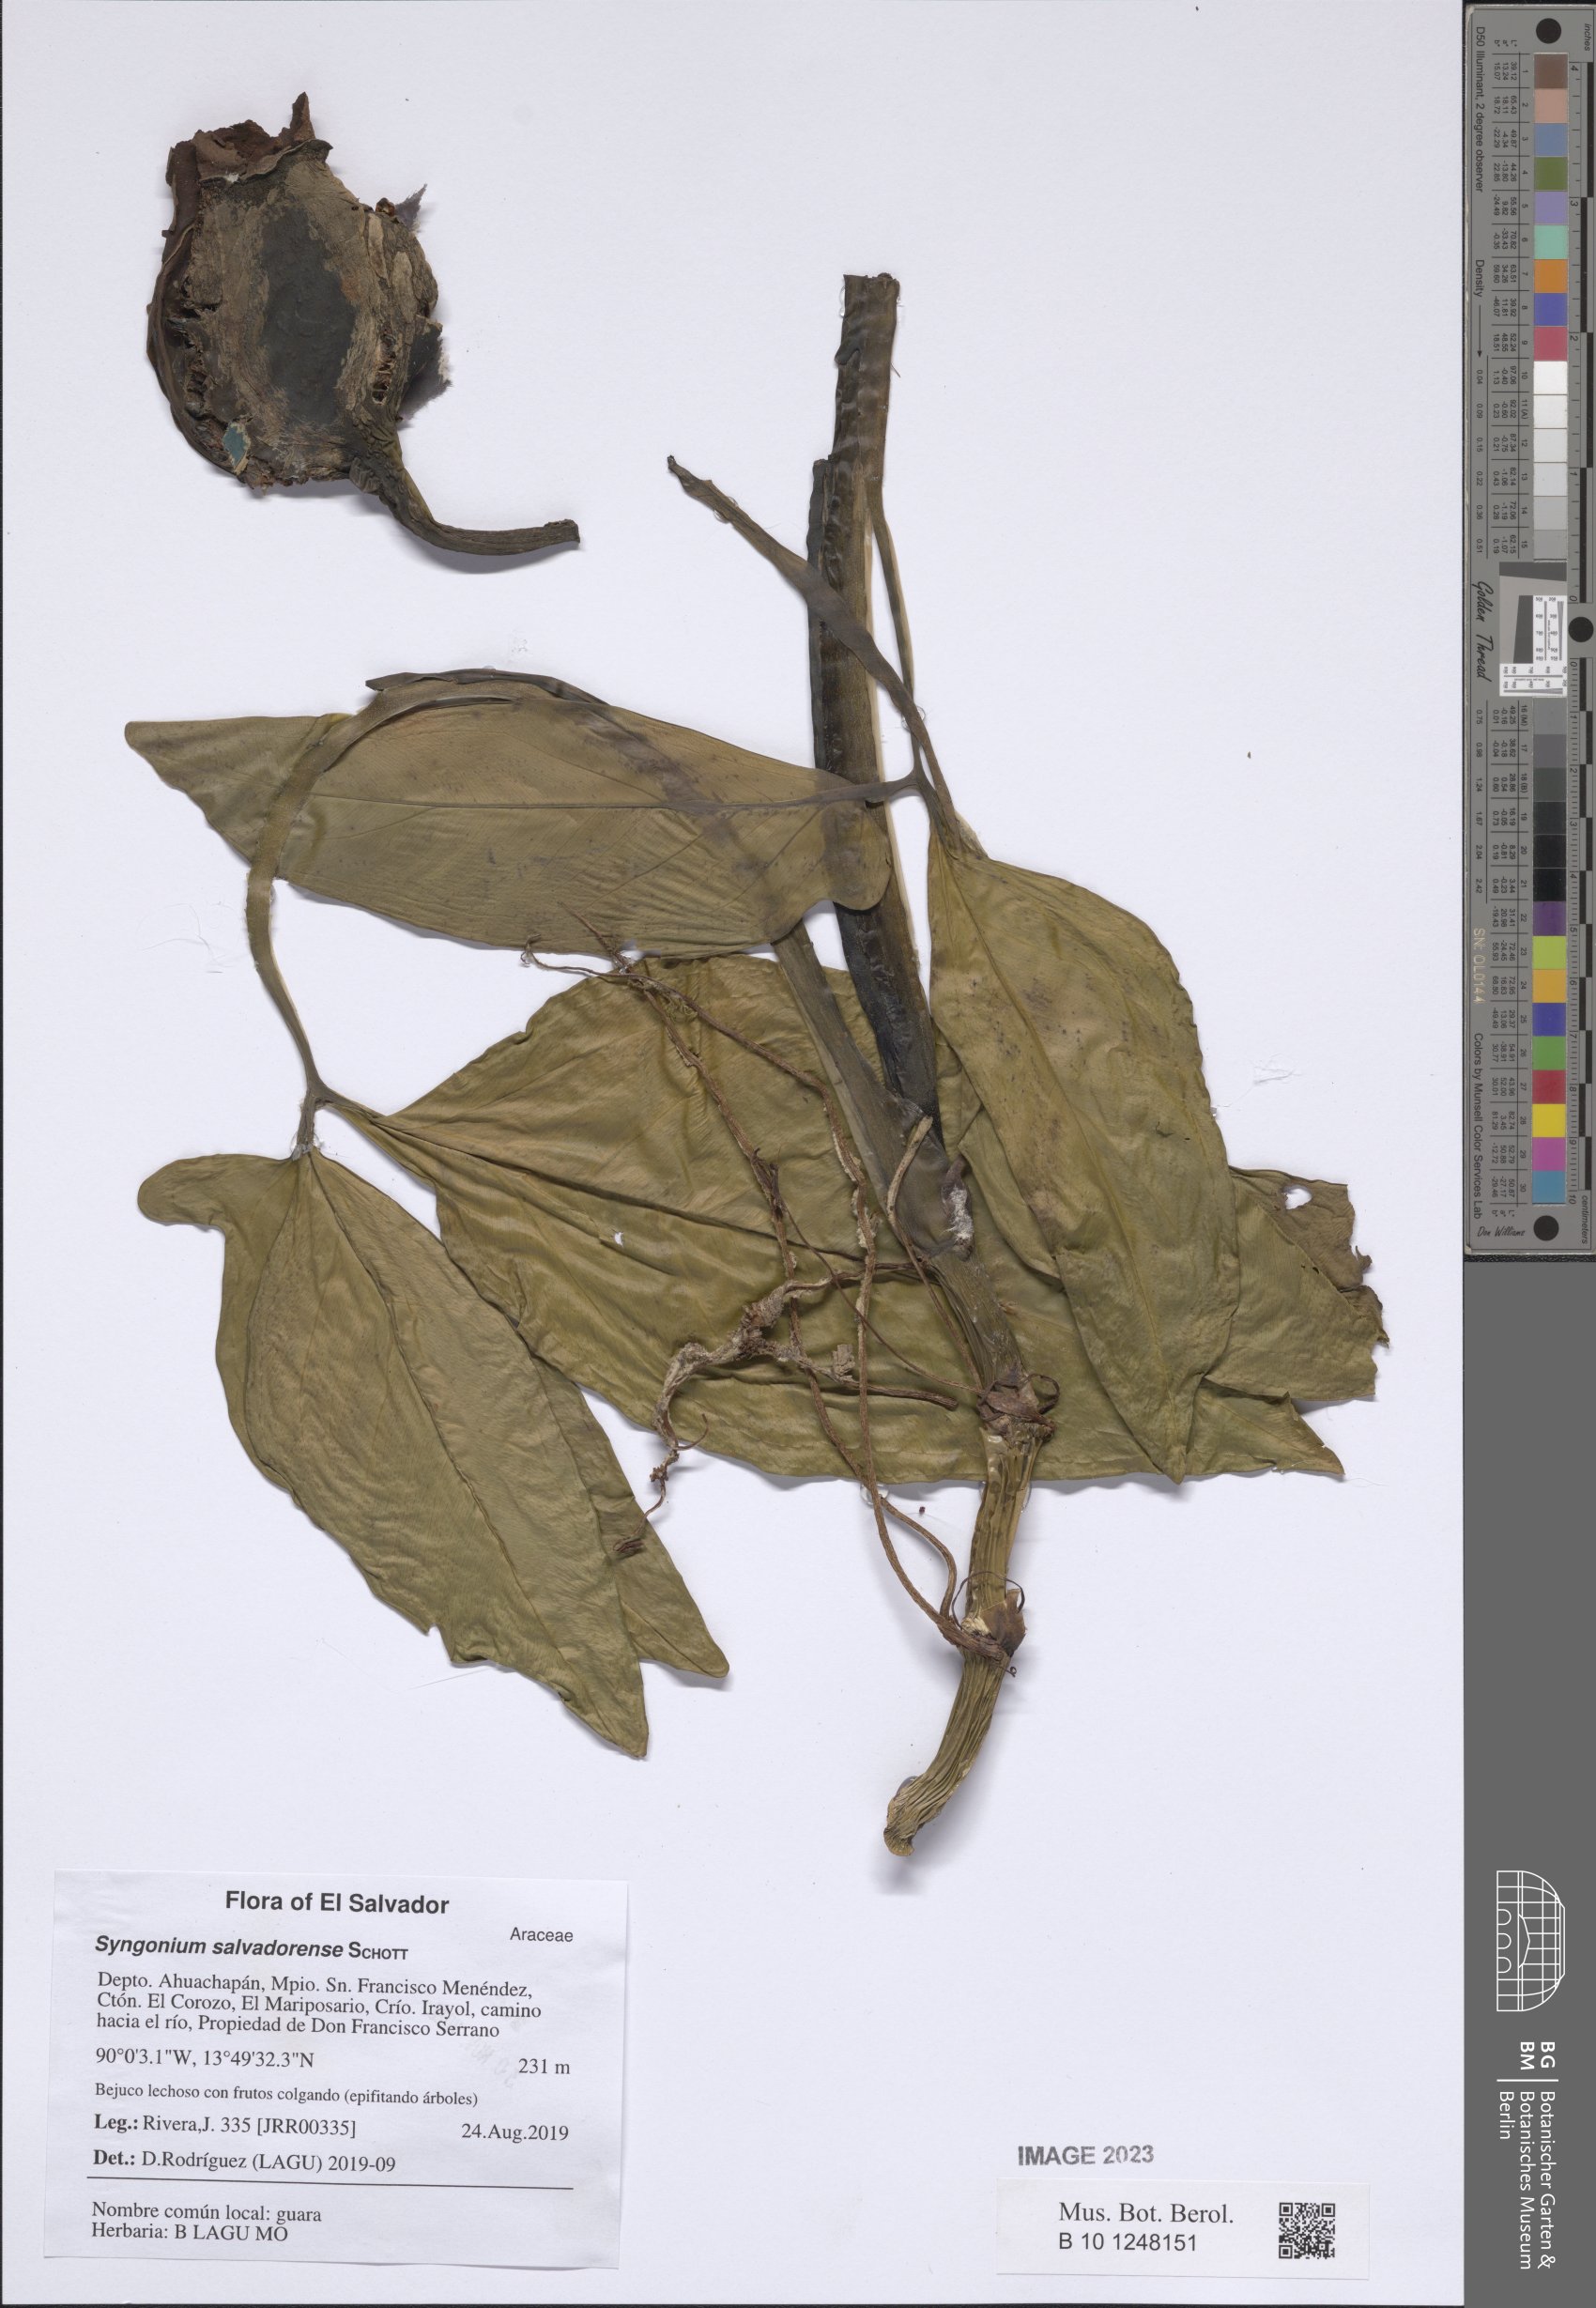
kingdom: Plantae
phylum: Tracheophyta
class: Liliopsida
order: Alismatales
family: Araceae
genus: Syngonium
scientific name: Syngonium salvadorense
